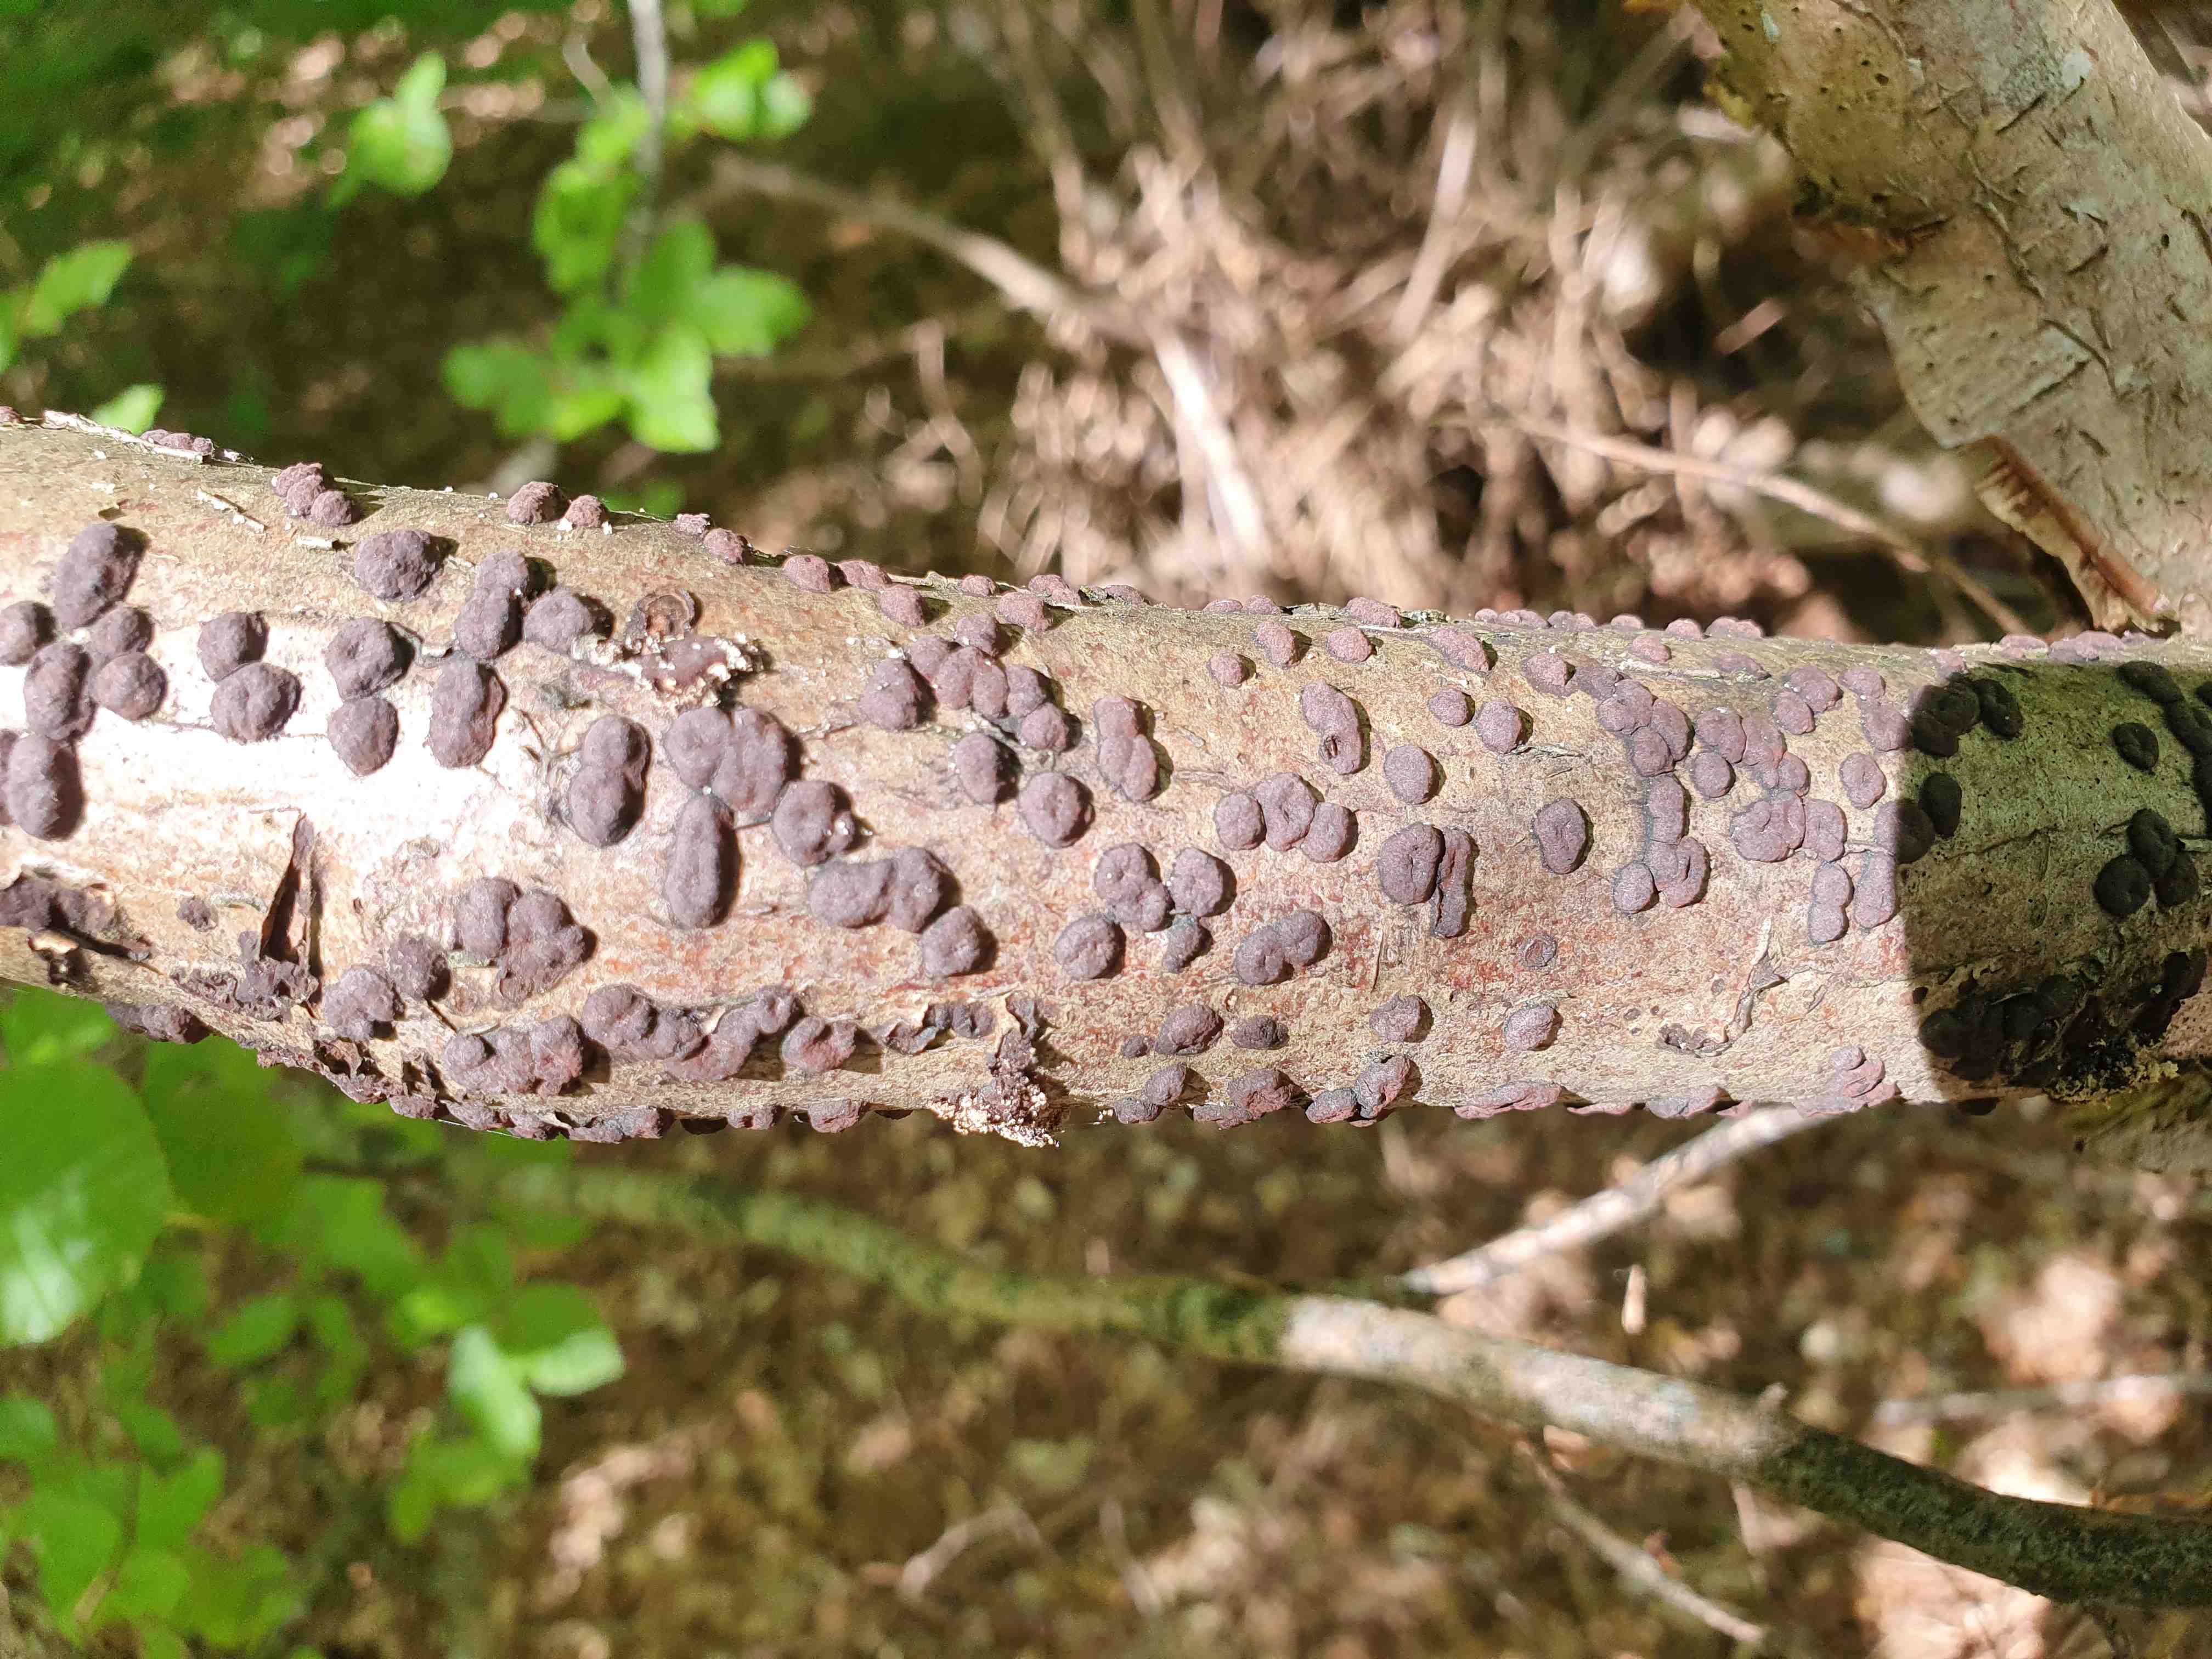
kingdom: Fungi
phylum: Ascomycota
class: Sordariomycetes
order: Xylariales
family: Hypoxylaceae
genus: Hypoxylon
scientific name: Hypoxylon fuscum
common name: kegleformet kulbær
